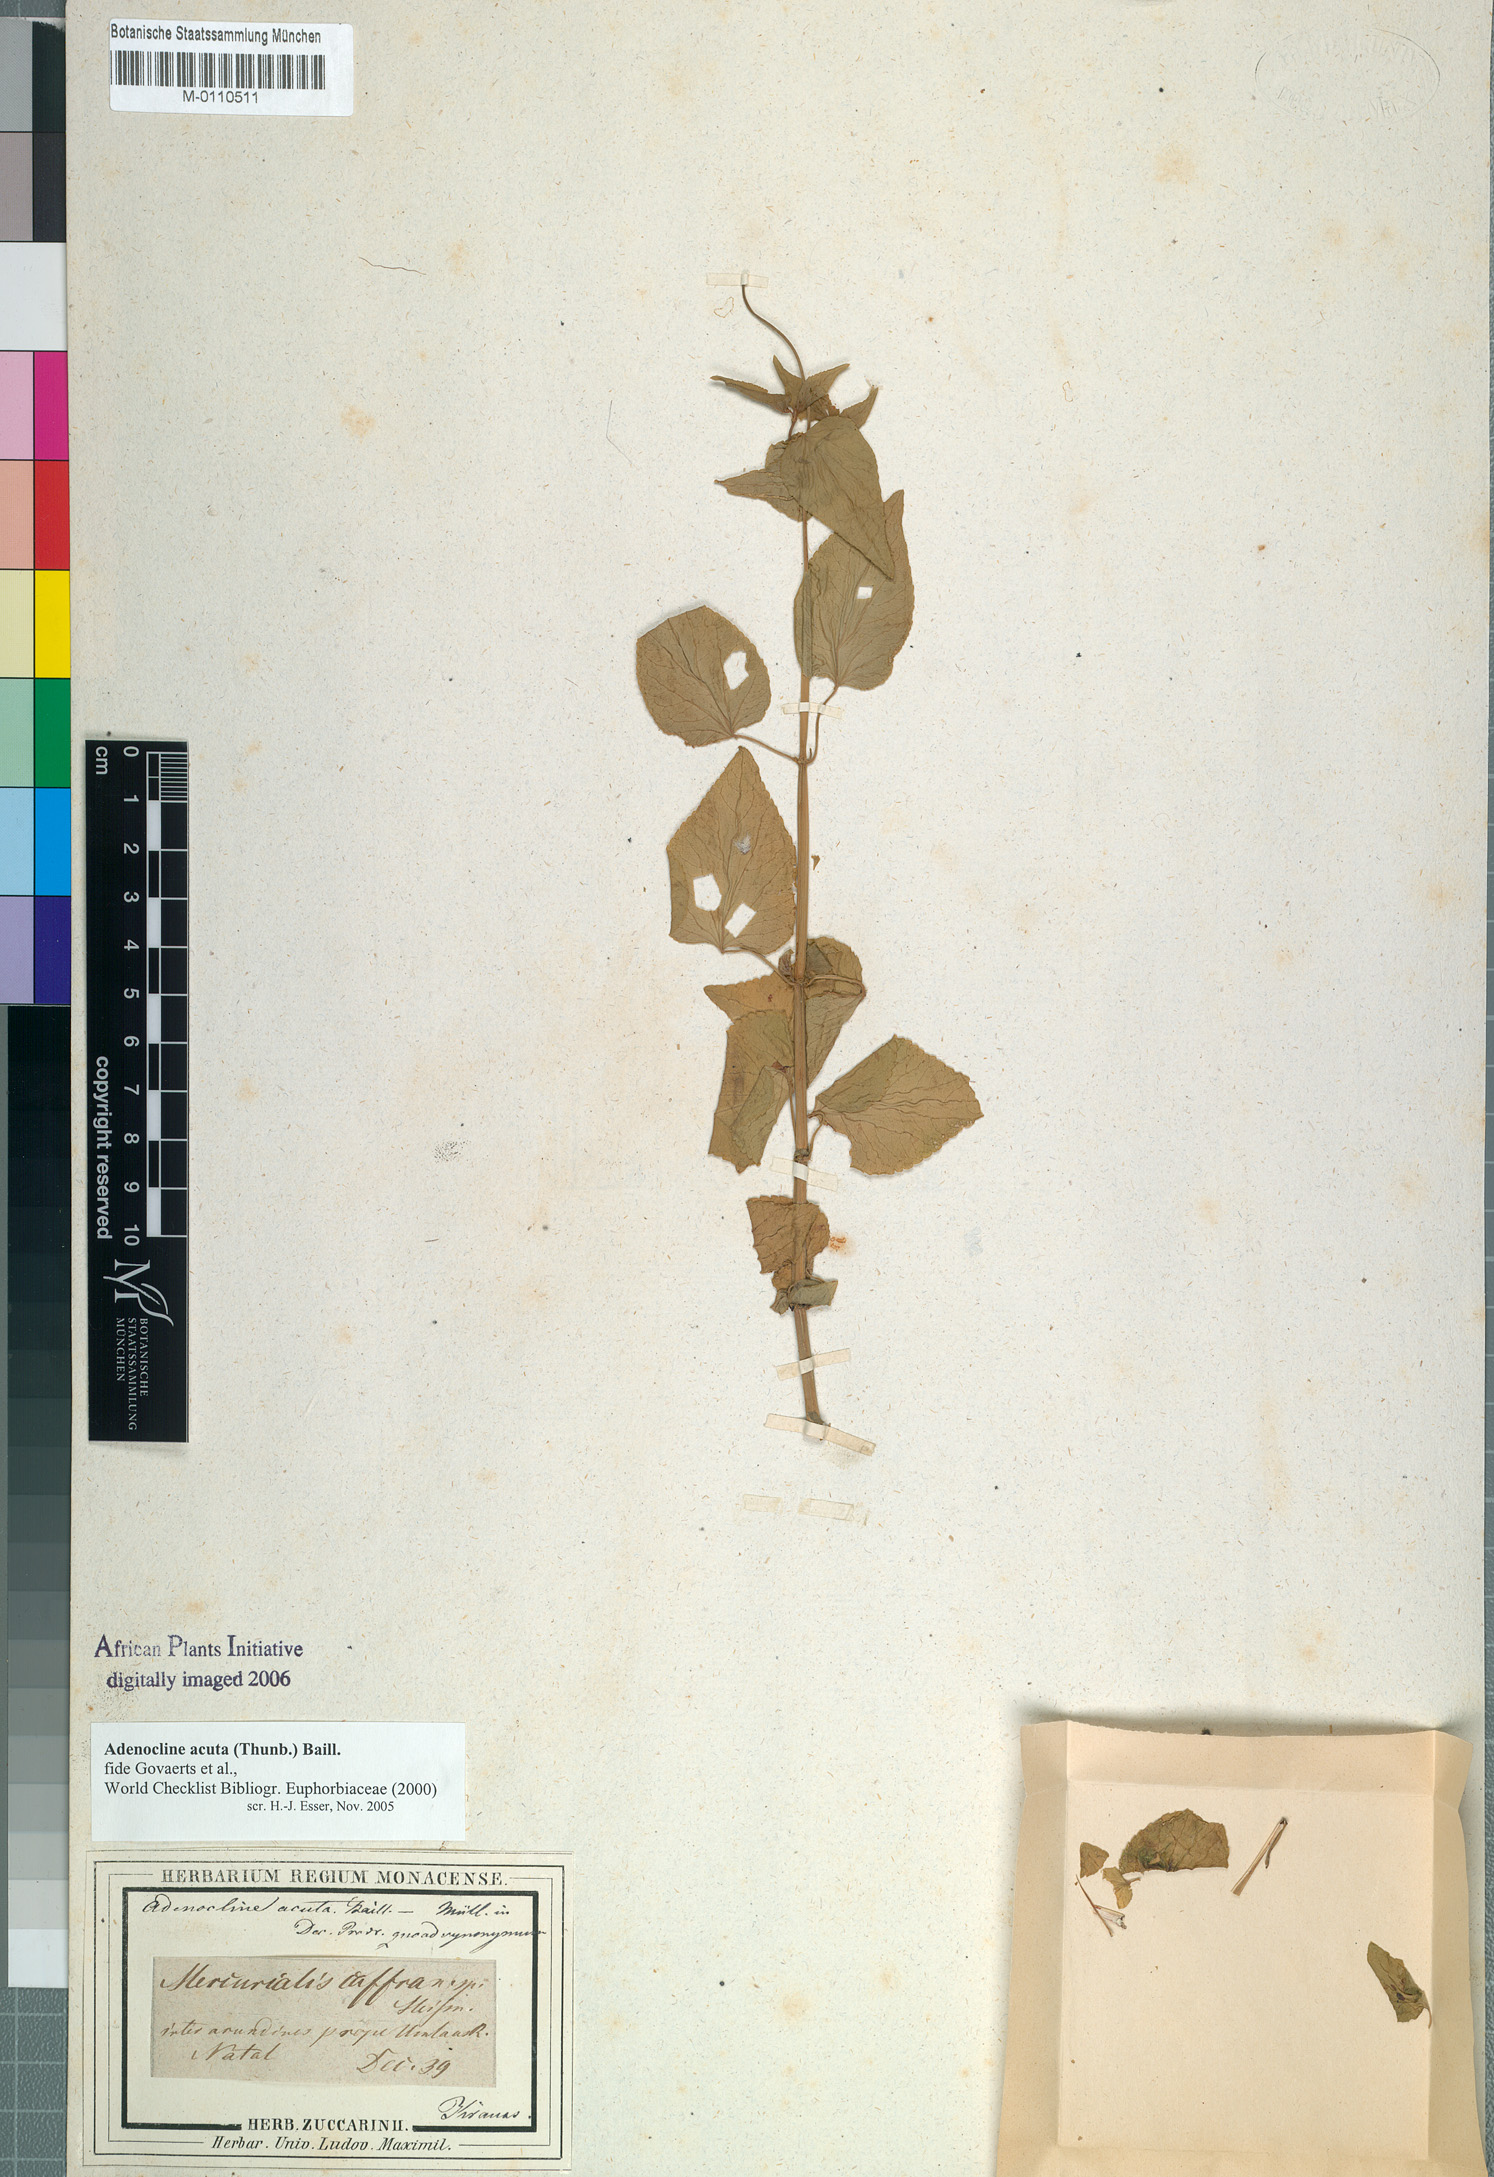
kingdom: Plantae
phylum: Tracheophyta
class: Magnoliopsida
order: Malpighiales
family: Euphorbiaceae
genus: Adenocline
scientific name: Adenocline acuta
